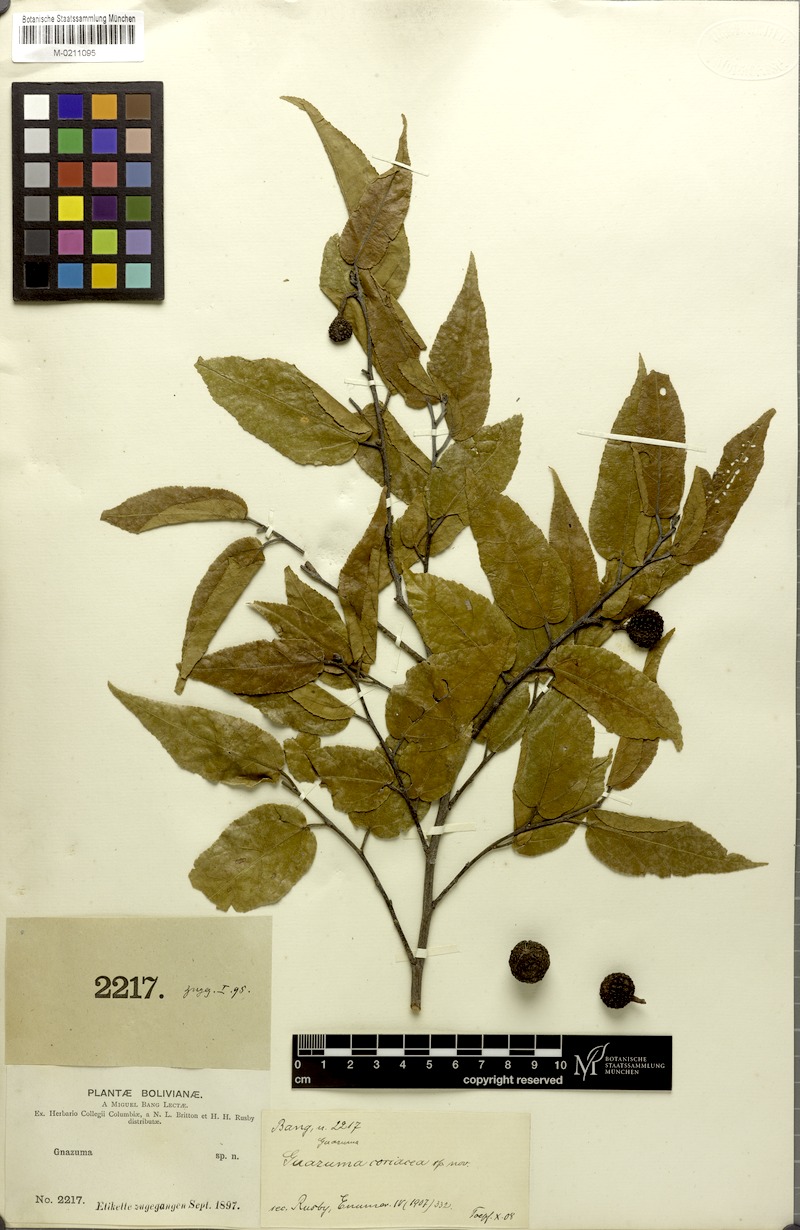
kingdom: Plantae
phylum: Tracheophyta
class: Magnoliopsida
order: Malvales
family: Malvaceae
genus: Guazuma
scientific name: Guazuma ulmifolia
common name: Bastard-cedar
